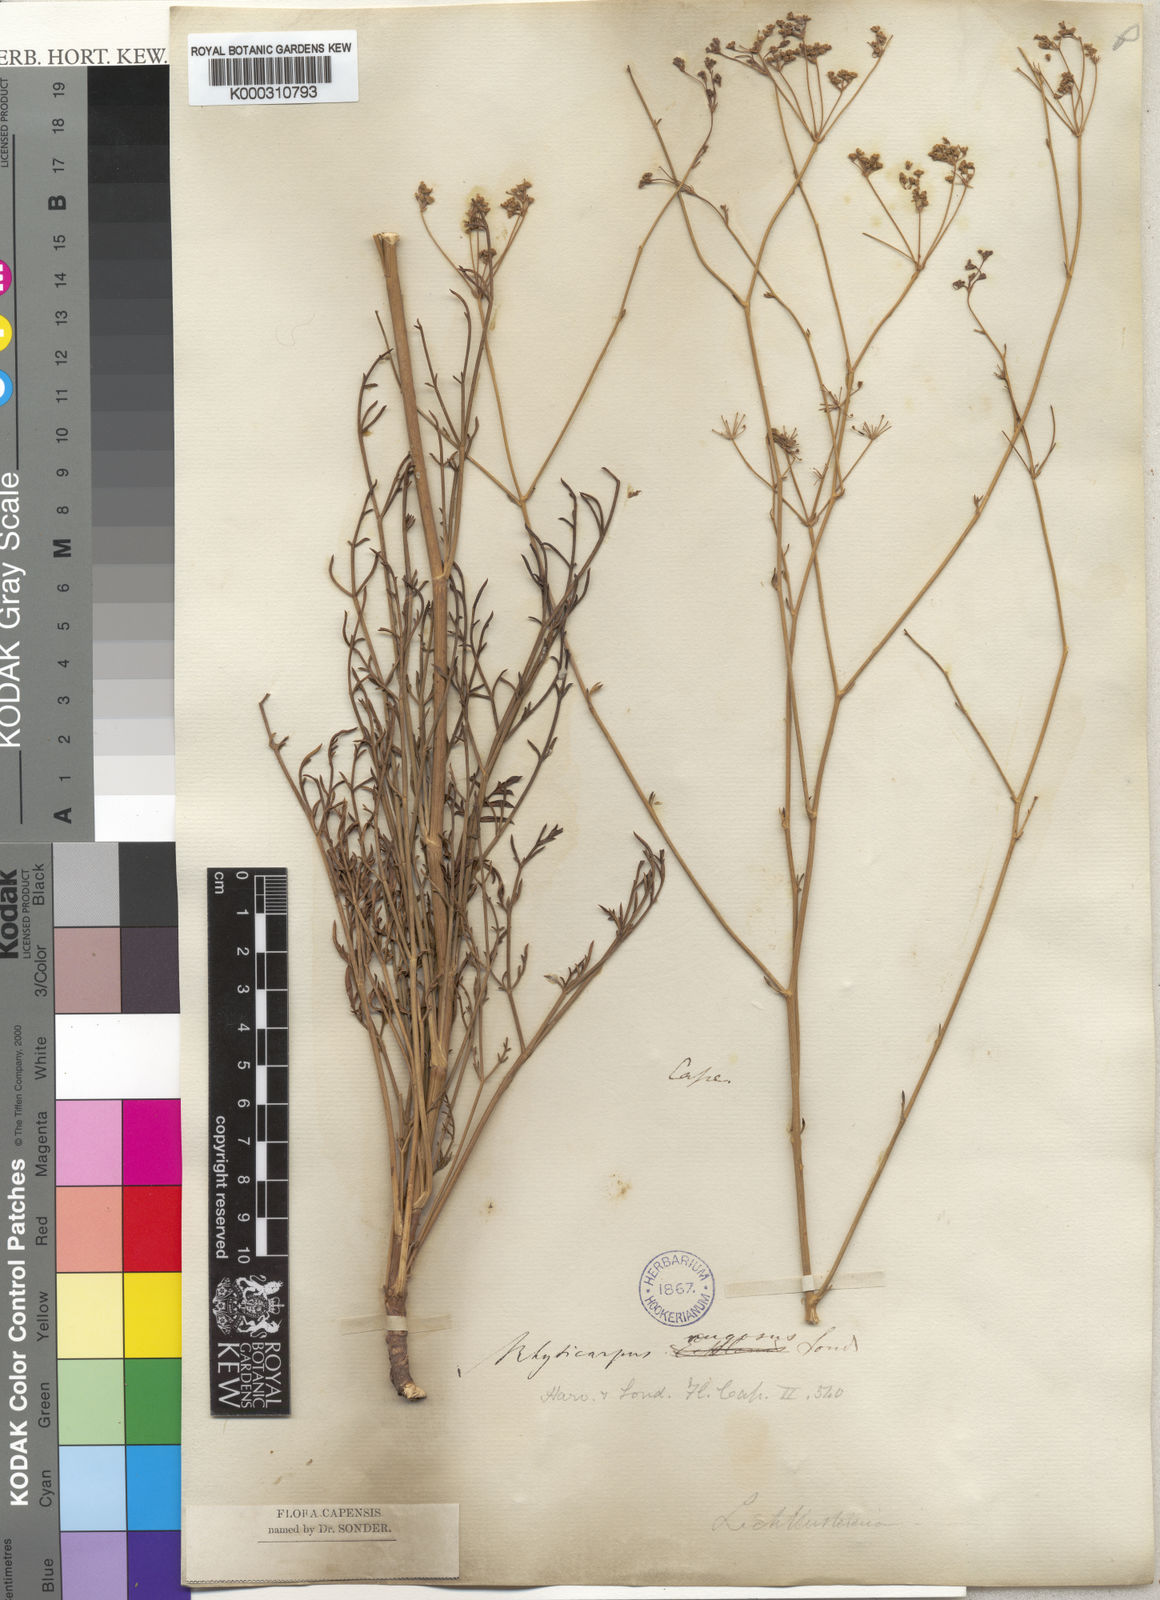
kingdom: Plantae
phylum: Tracheophyta
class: Magnoliopsida
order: Apiales
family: Apiaceae
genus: Anginon
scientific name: Anginon rugosum
